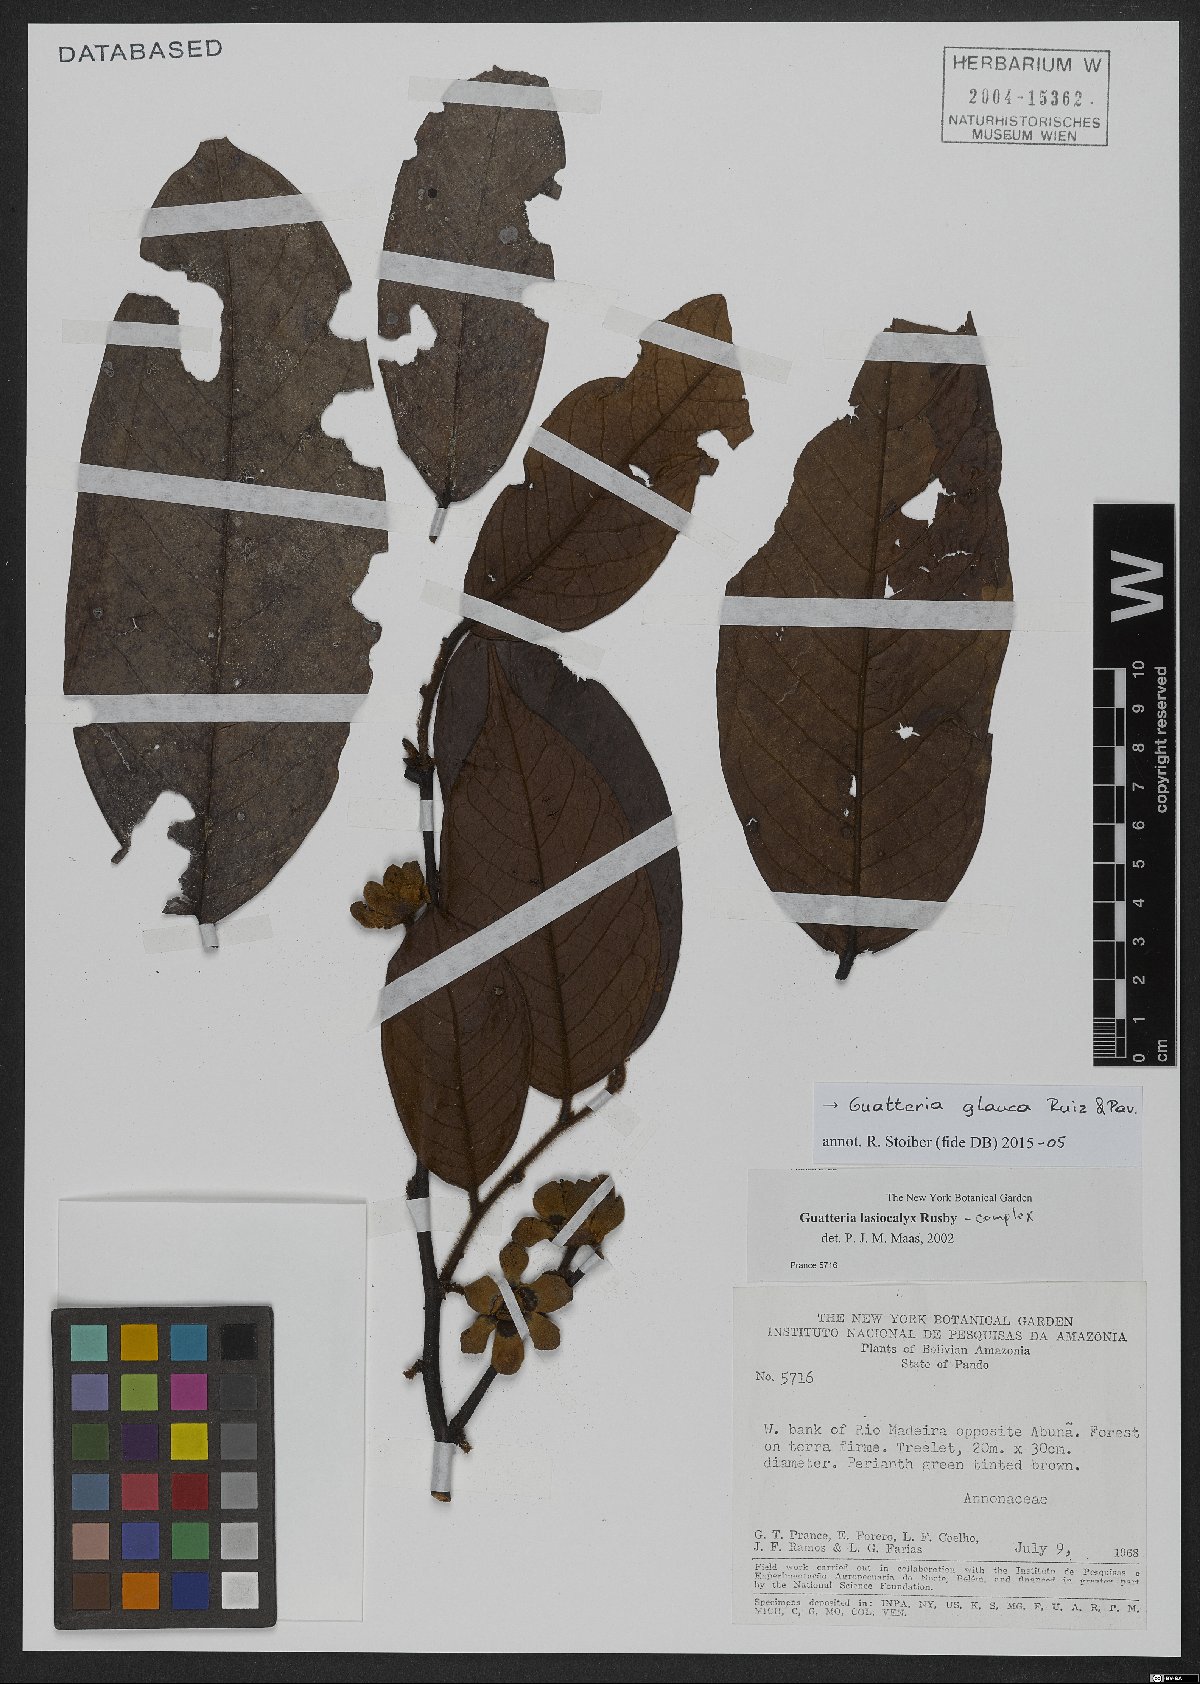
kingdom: Plantae
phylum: Tracheophyta
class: Magnoliopsida
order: Magnoliales
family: Annonaceae
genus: Guatteria
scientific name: Guatteria glauca
